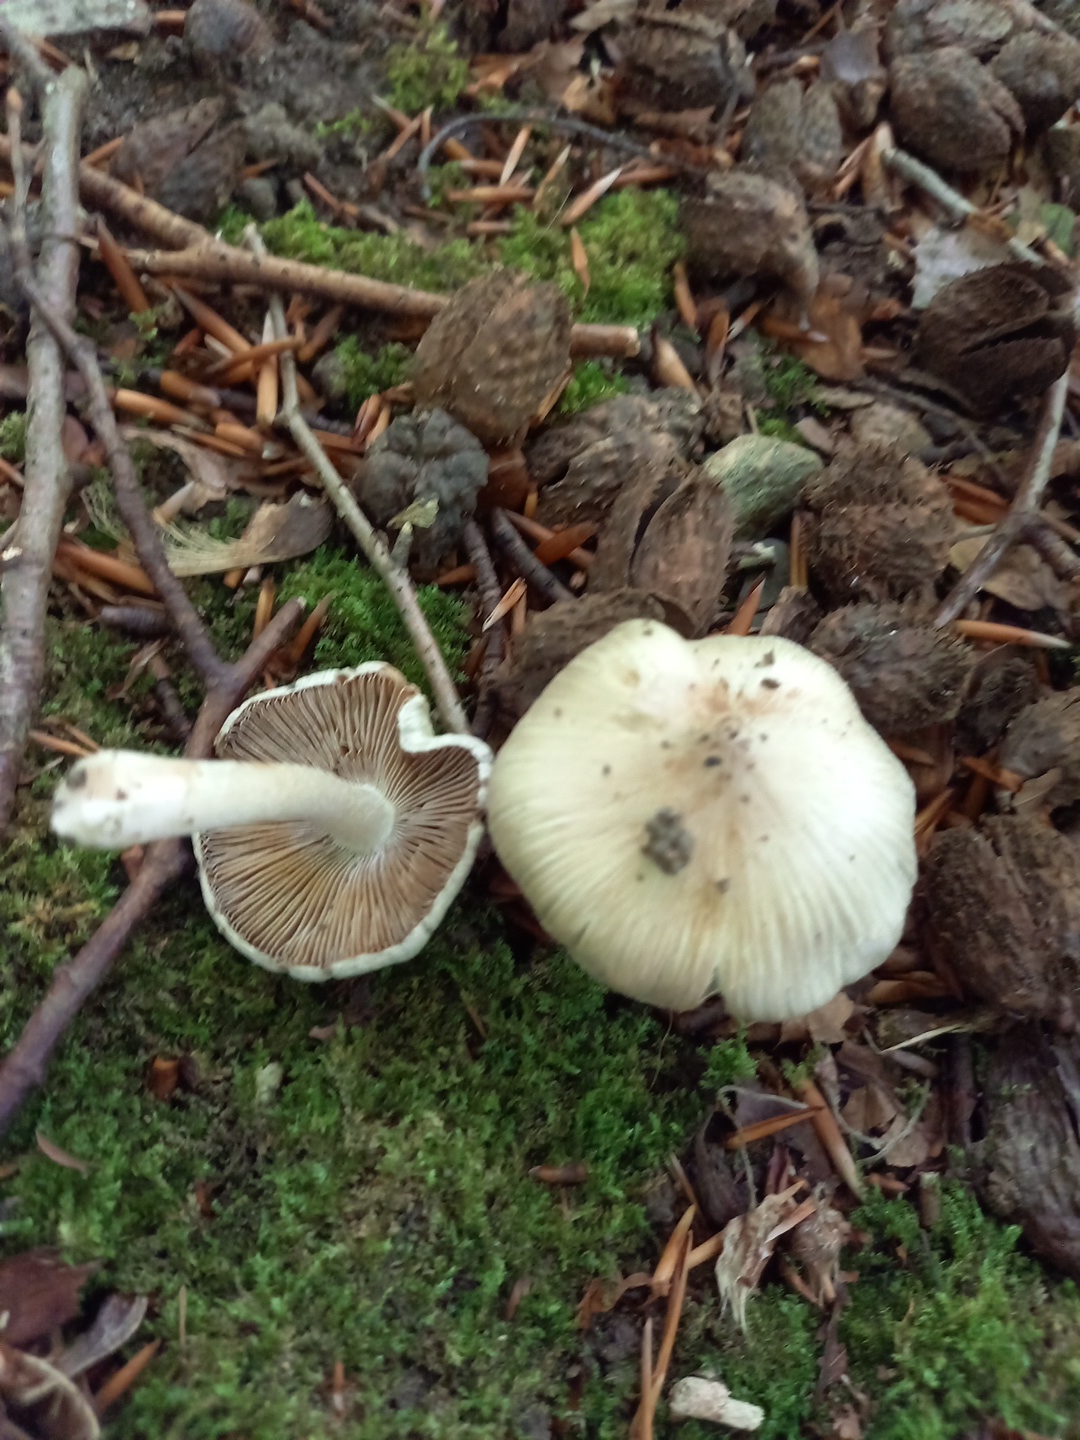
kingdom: Fungi
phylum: Basidiomycota
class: Agaricomycetes
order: Agaricales
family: Inocybaceae
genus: Inosperma
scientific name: Inosperma
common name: Trævlhat
